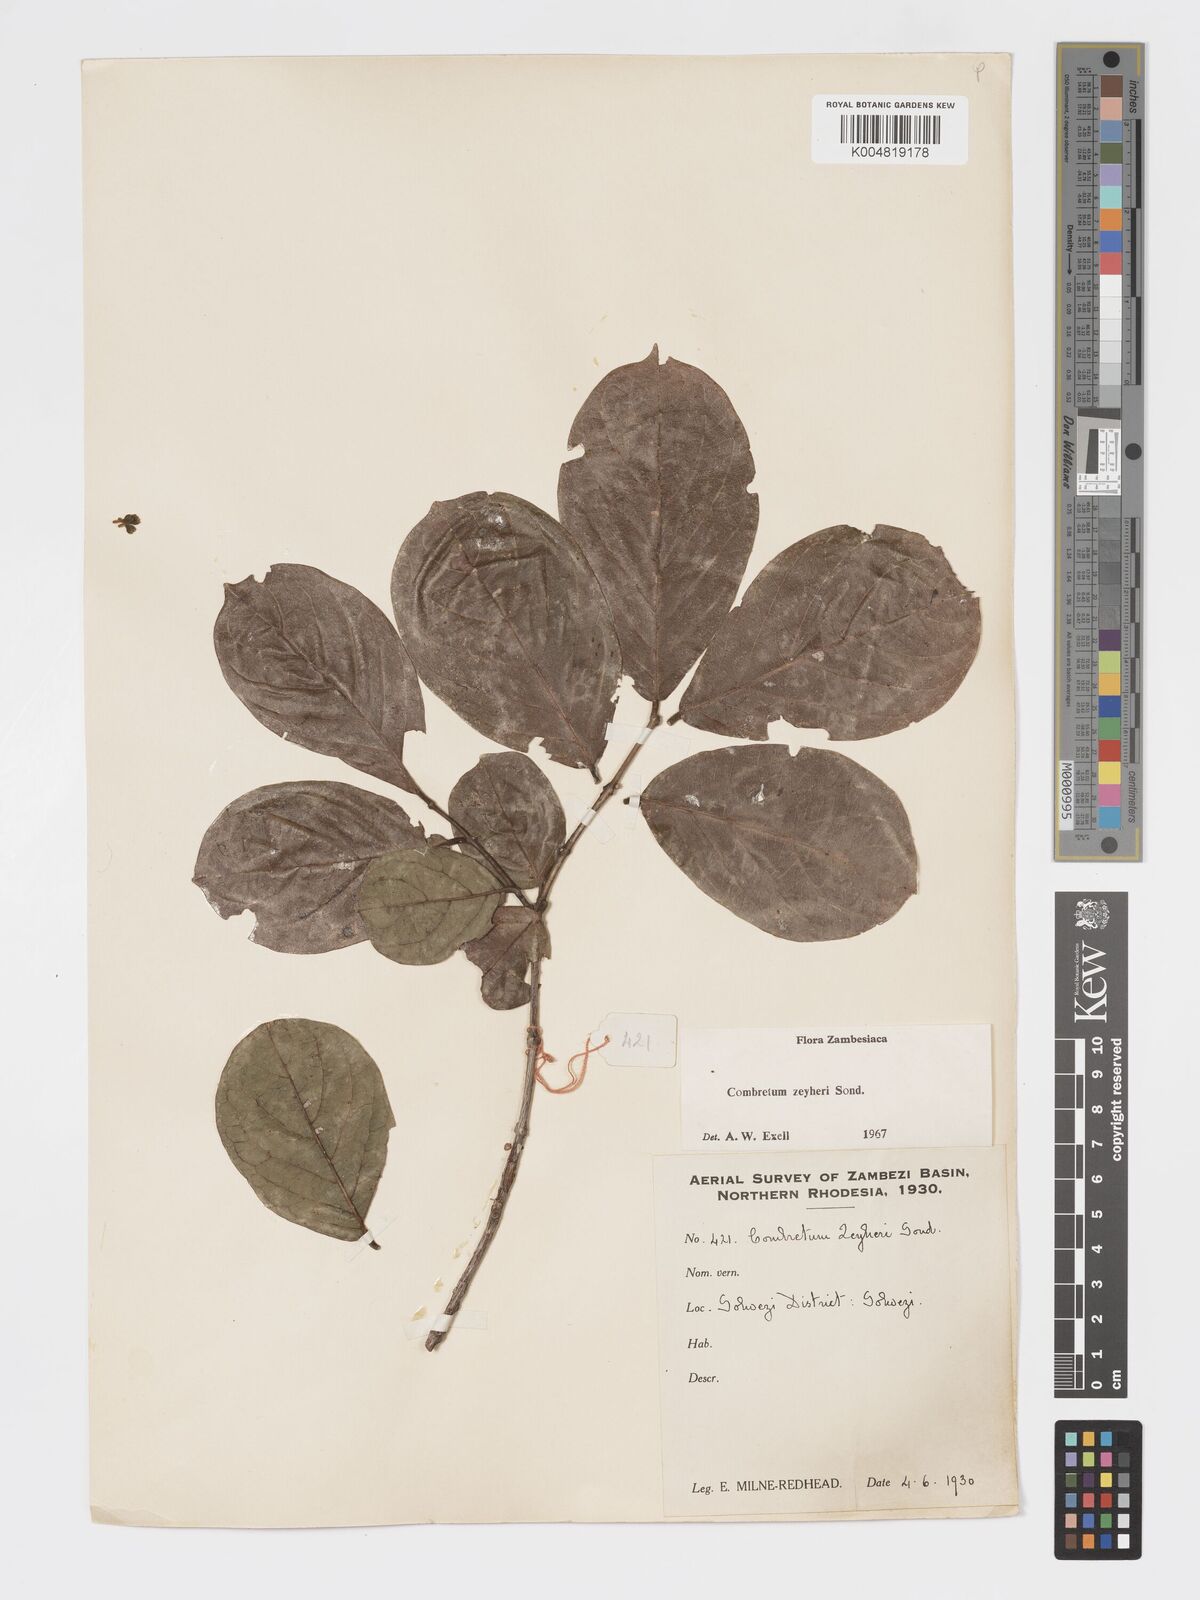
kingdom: Plantae
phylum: Tracheophyta
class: Magnoliopsida
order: Myrtales
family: Combretaceae
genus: Combretum
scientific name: Combretum zeyheri
